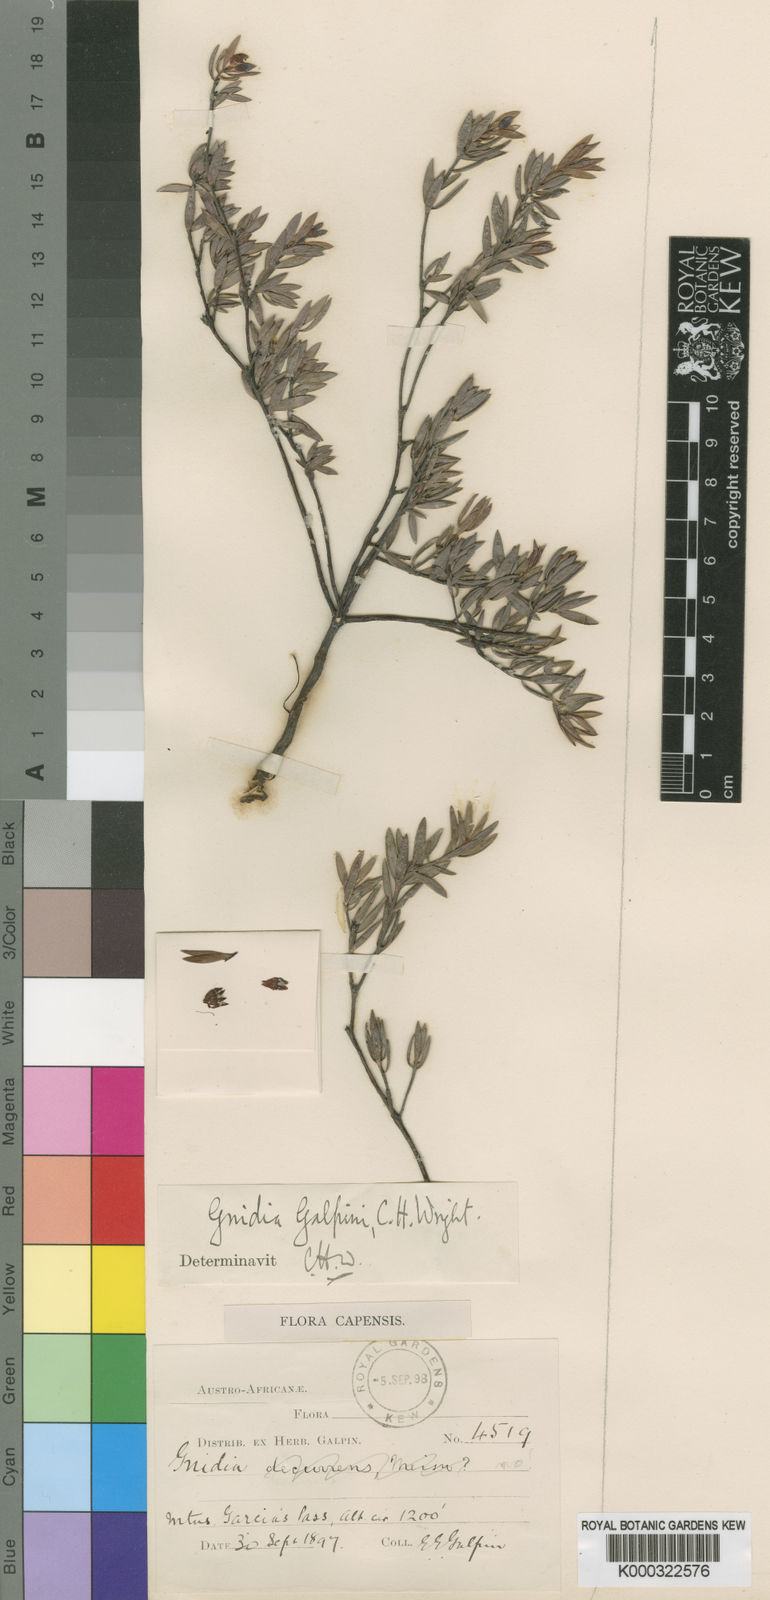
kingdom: Plantae
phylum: Tracheophyta
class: Magnoliopsida
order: Malvales
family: Thymelaeaceae
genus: Gnidia
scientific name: Gnidia galpinii
